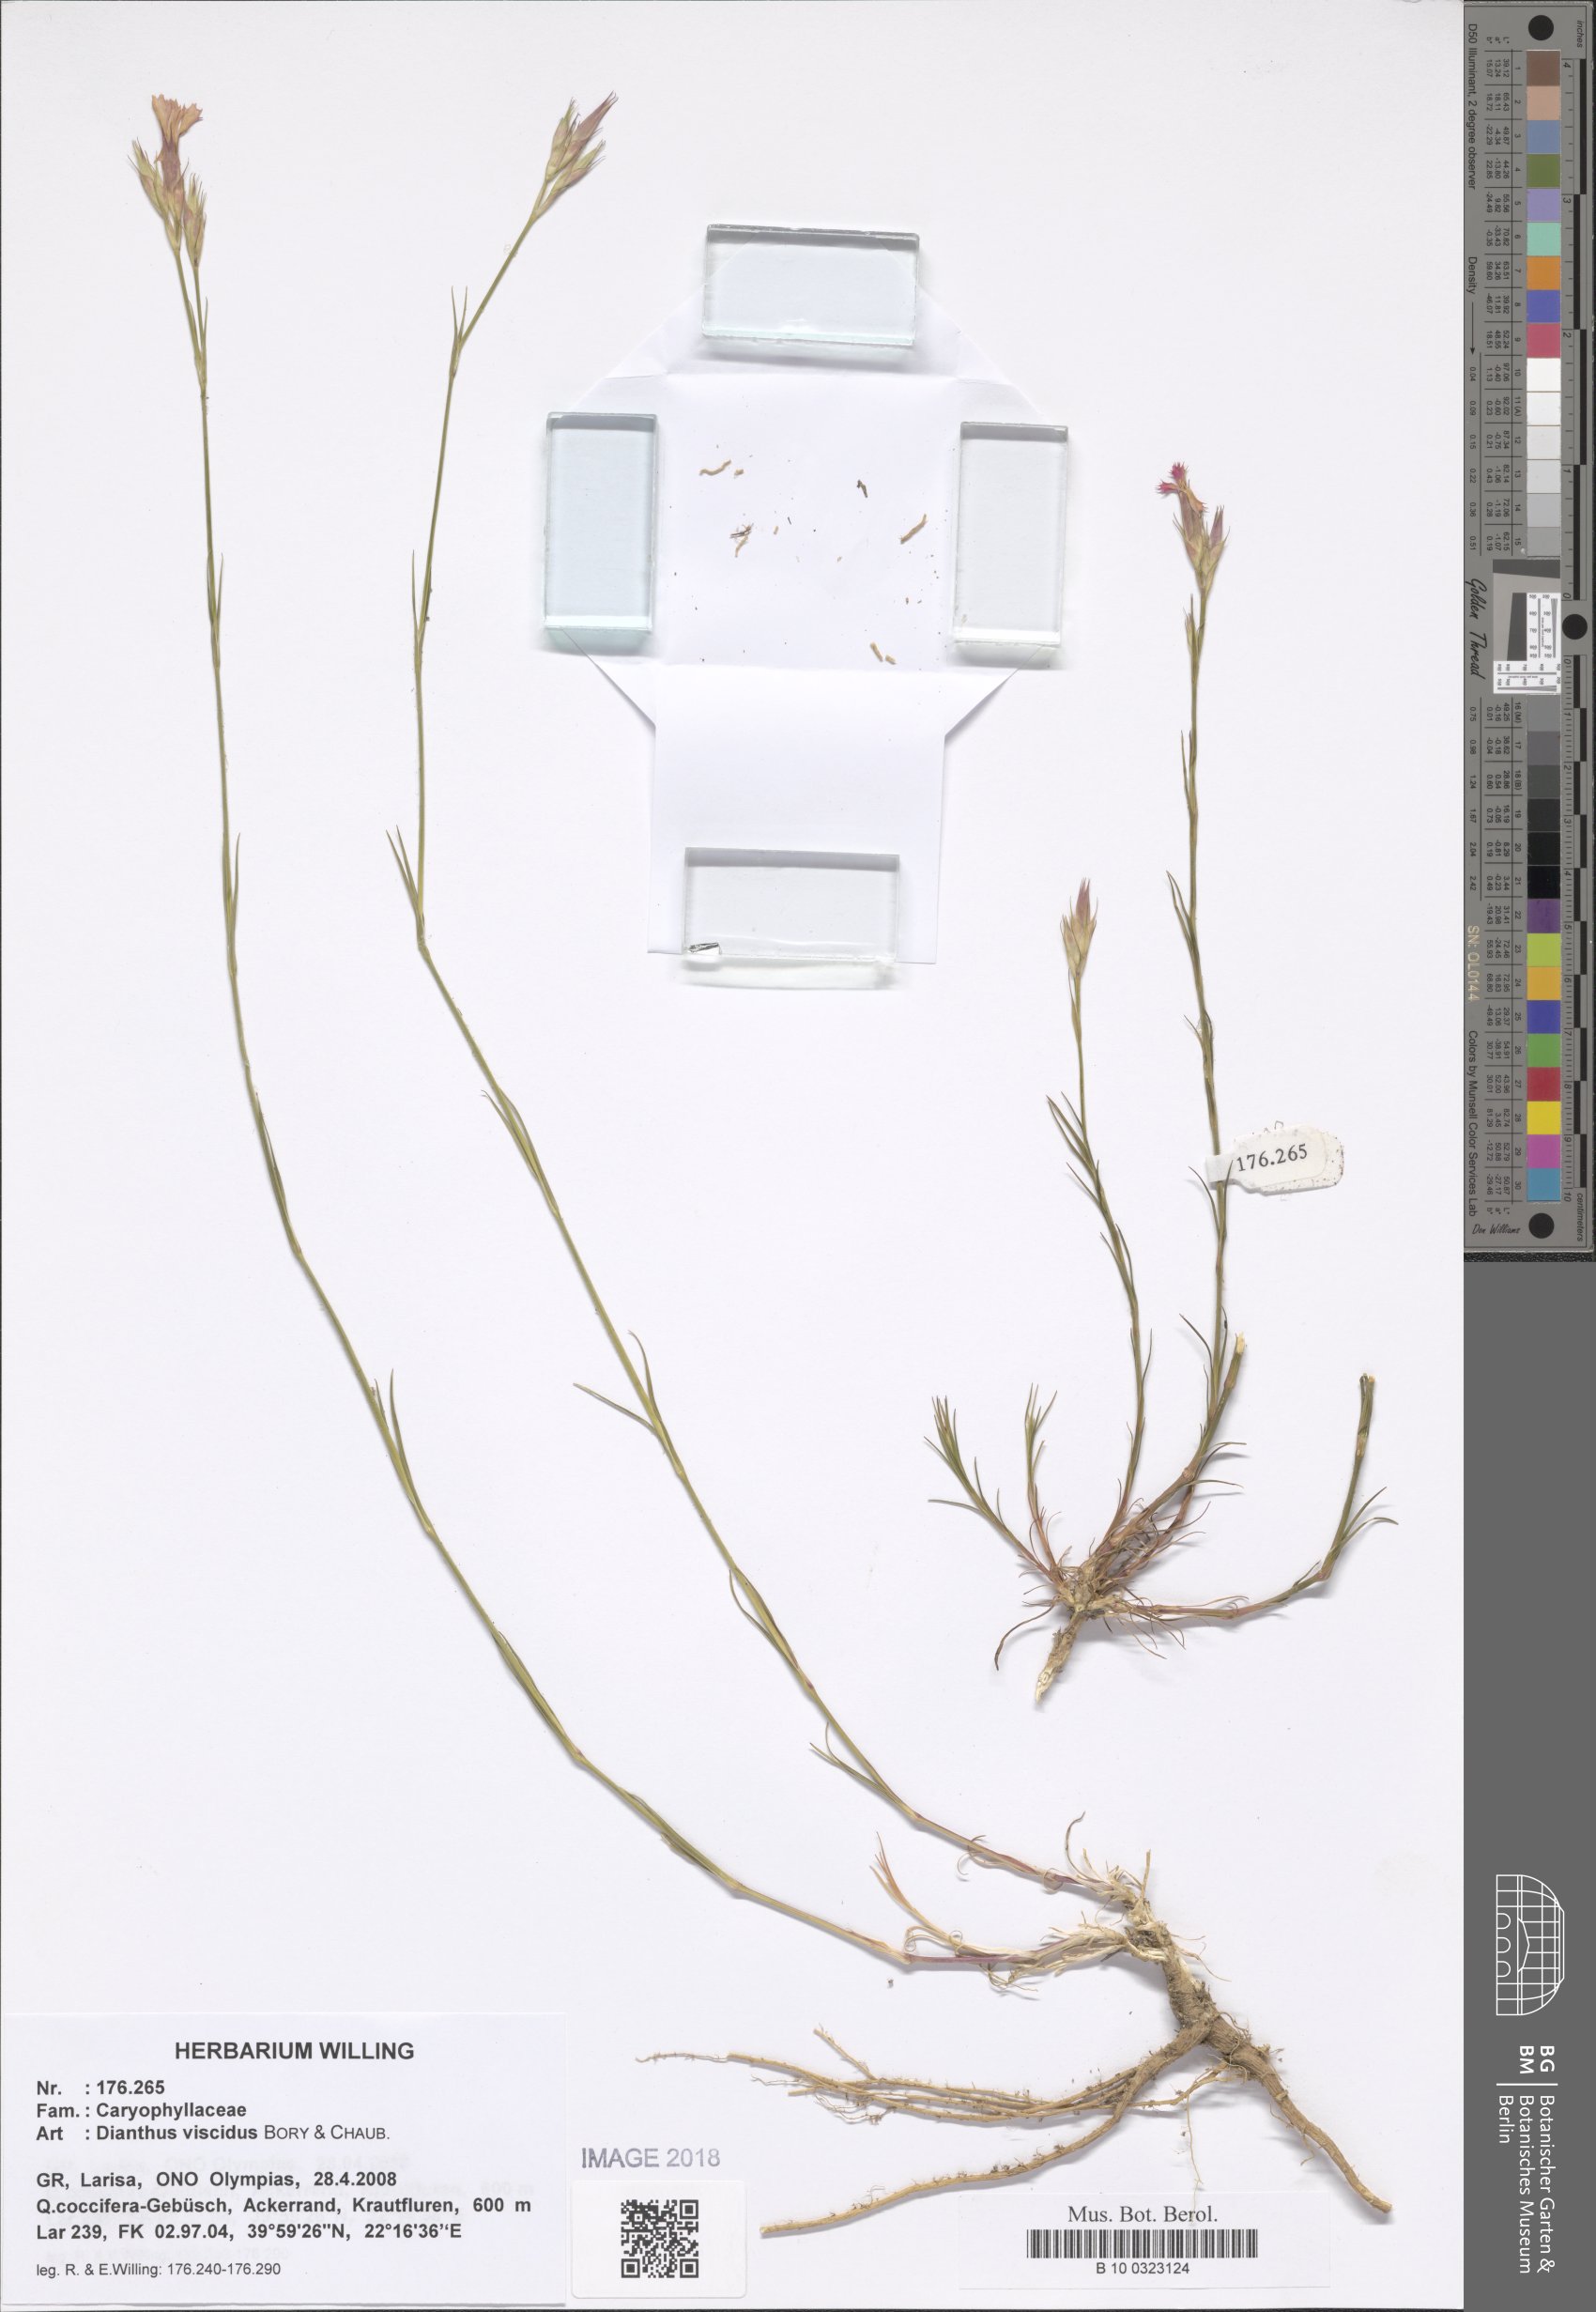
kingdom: Plantae
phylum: Tracheophyta
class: Magnoliopsida
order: Caryophyllales
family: Caryophyllaceae
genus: Dianthus
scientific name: Dianthus viscidus
